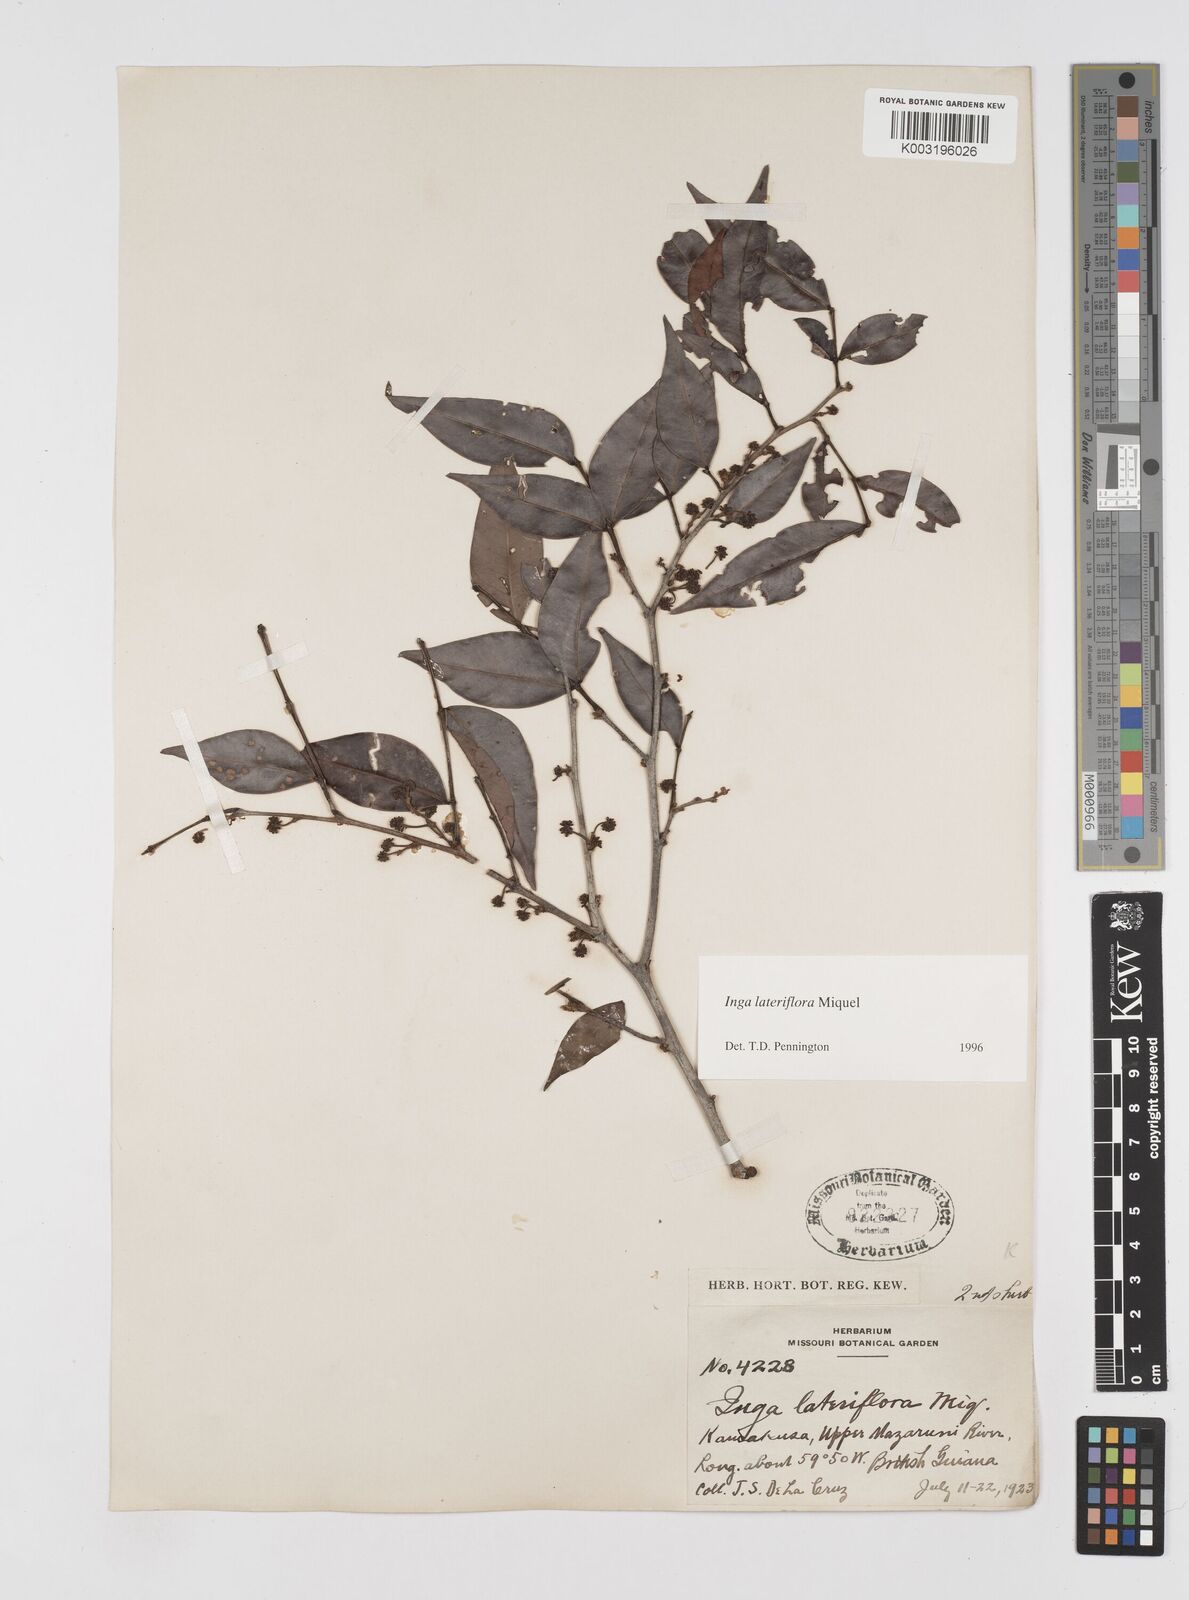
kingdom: Plantae
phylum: Tracheophyta
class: Magnoliopsida
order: Fabales
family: Fabaceae
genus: Inga
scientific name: Inga lateriflora
